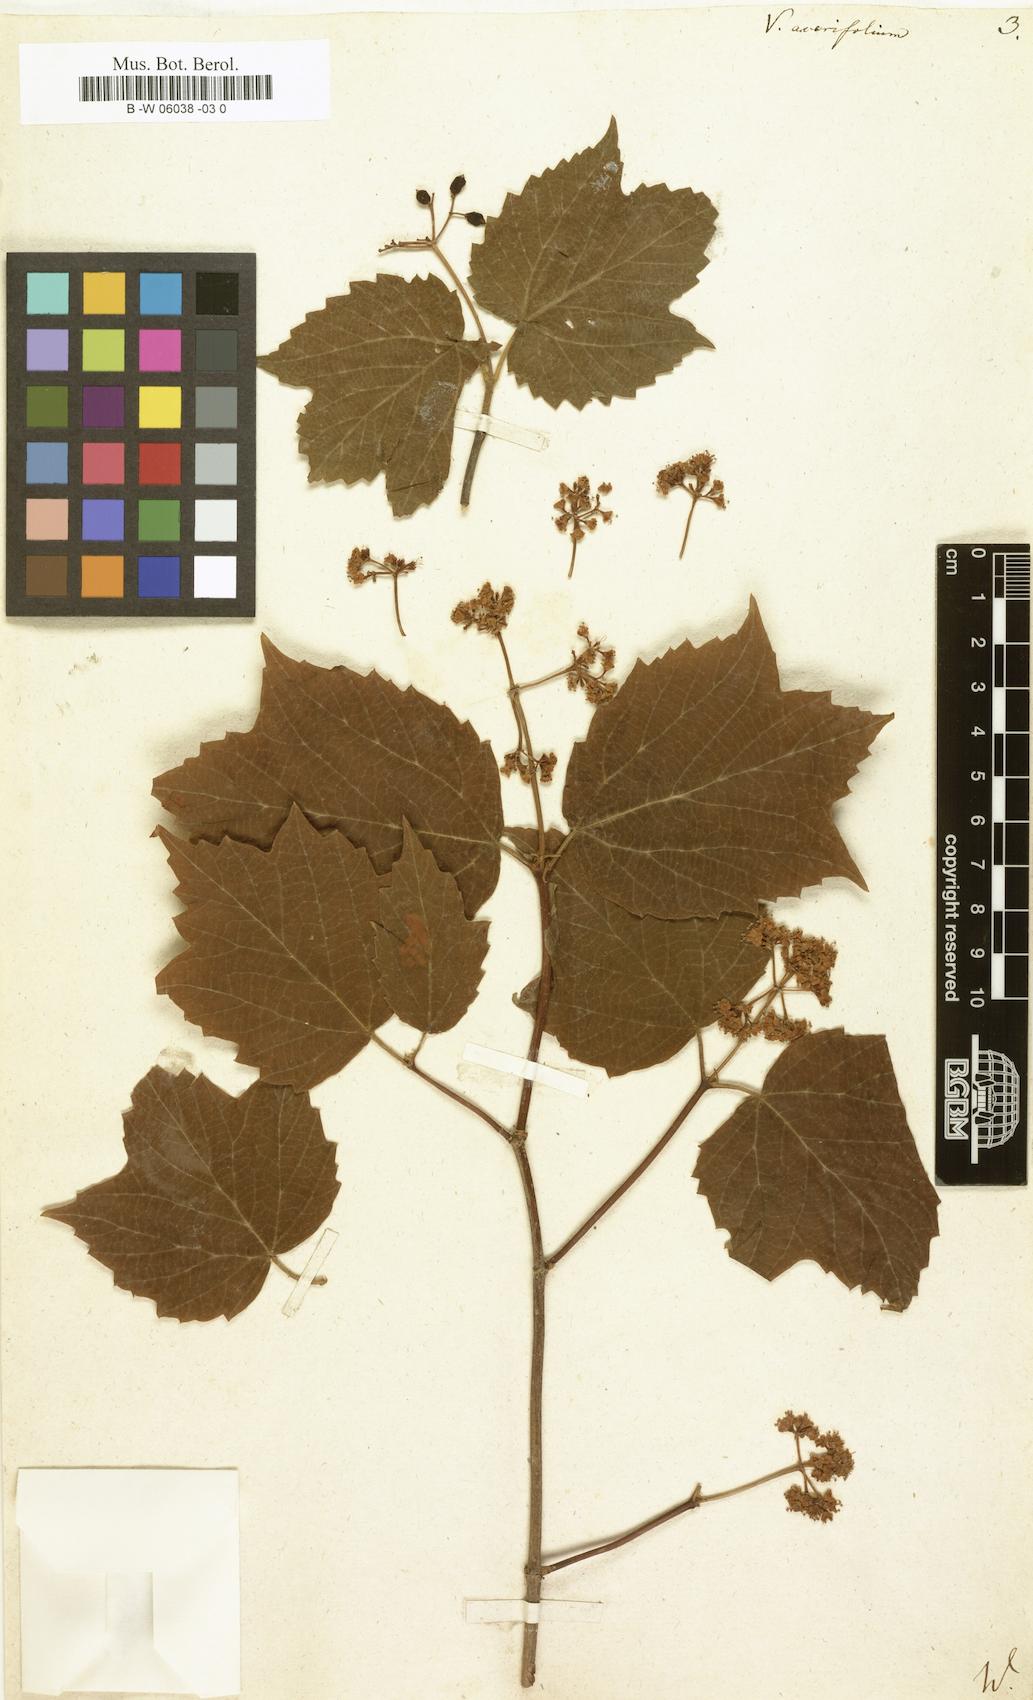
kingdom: Plantae
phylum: Tracheophyta
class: Magnoliopsida
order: Dipsacales
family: Viburnaceae
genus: Viburnum
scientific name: Viburnum acerifolium
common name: Dockmackie
